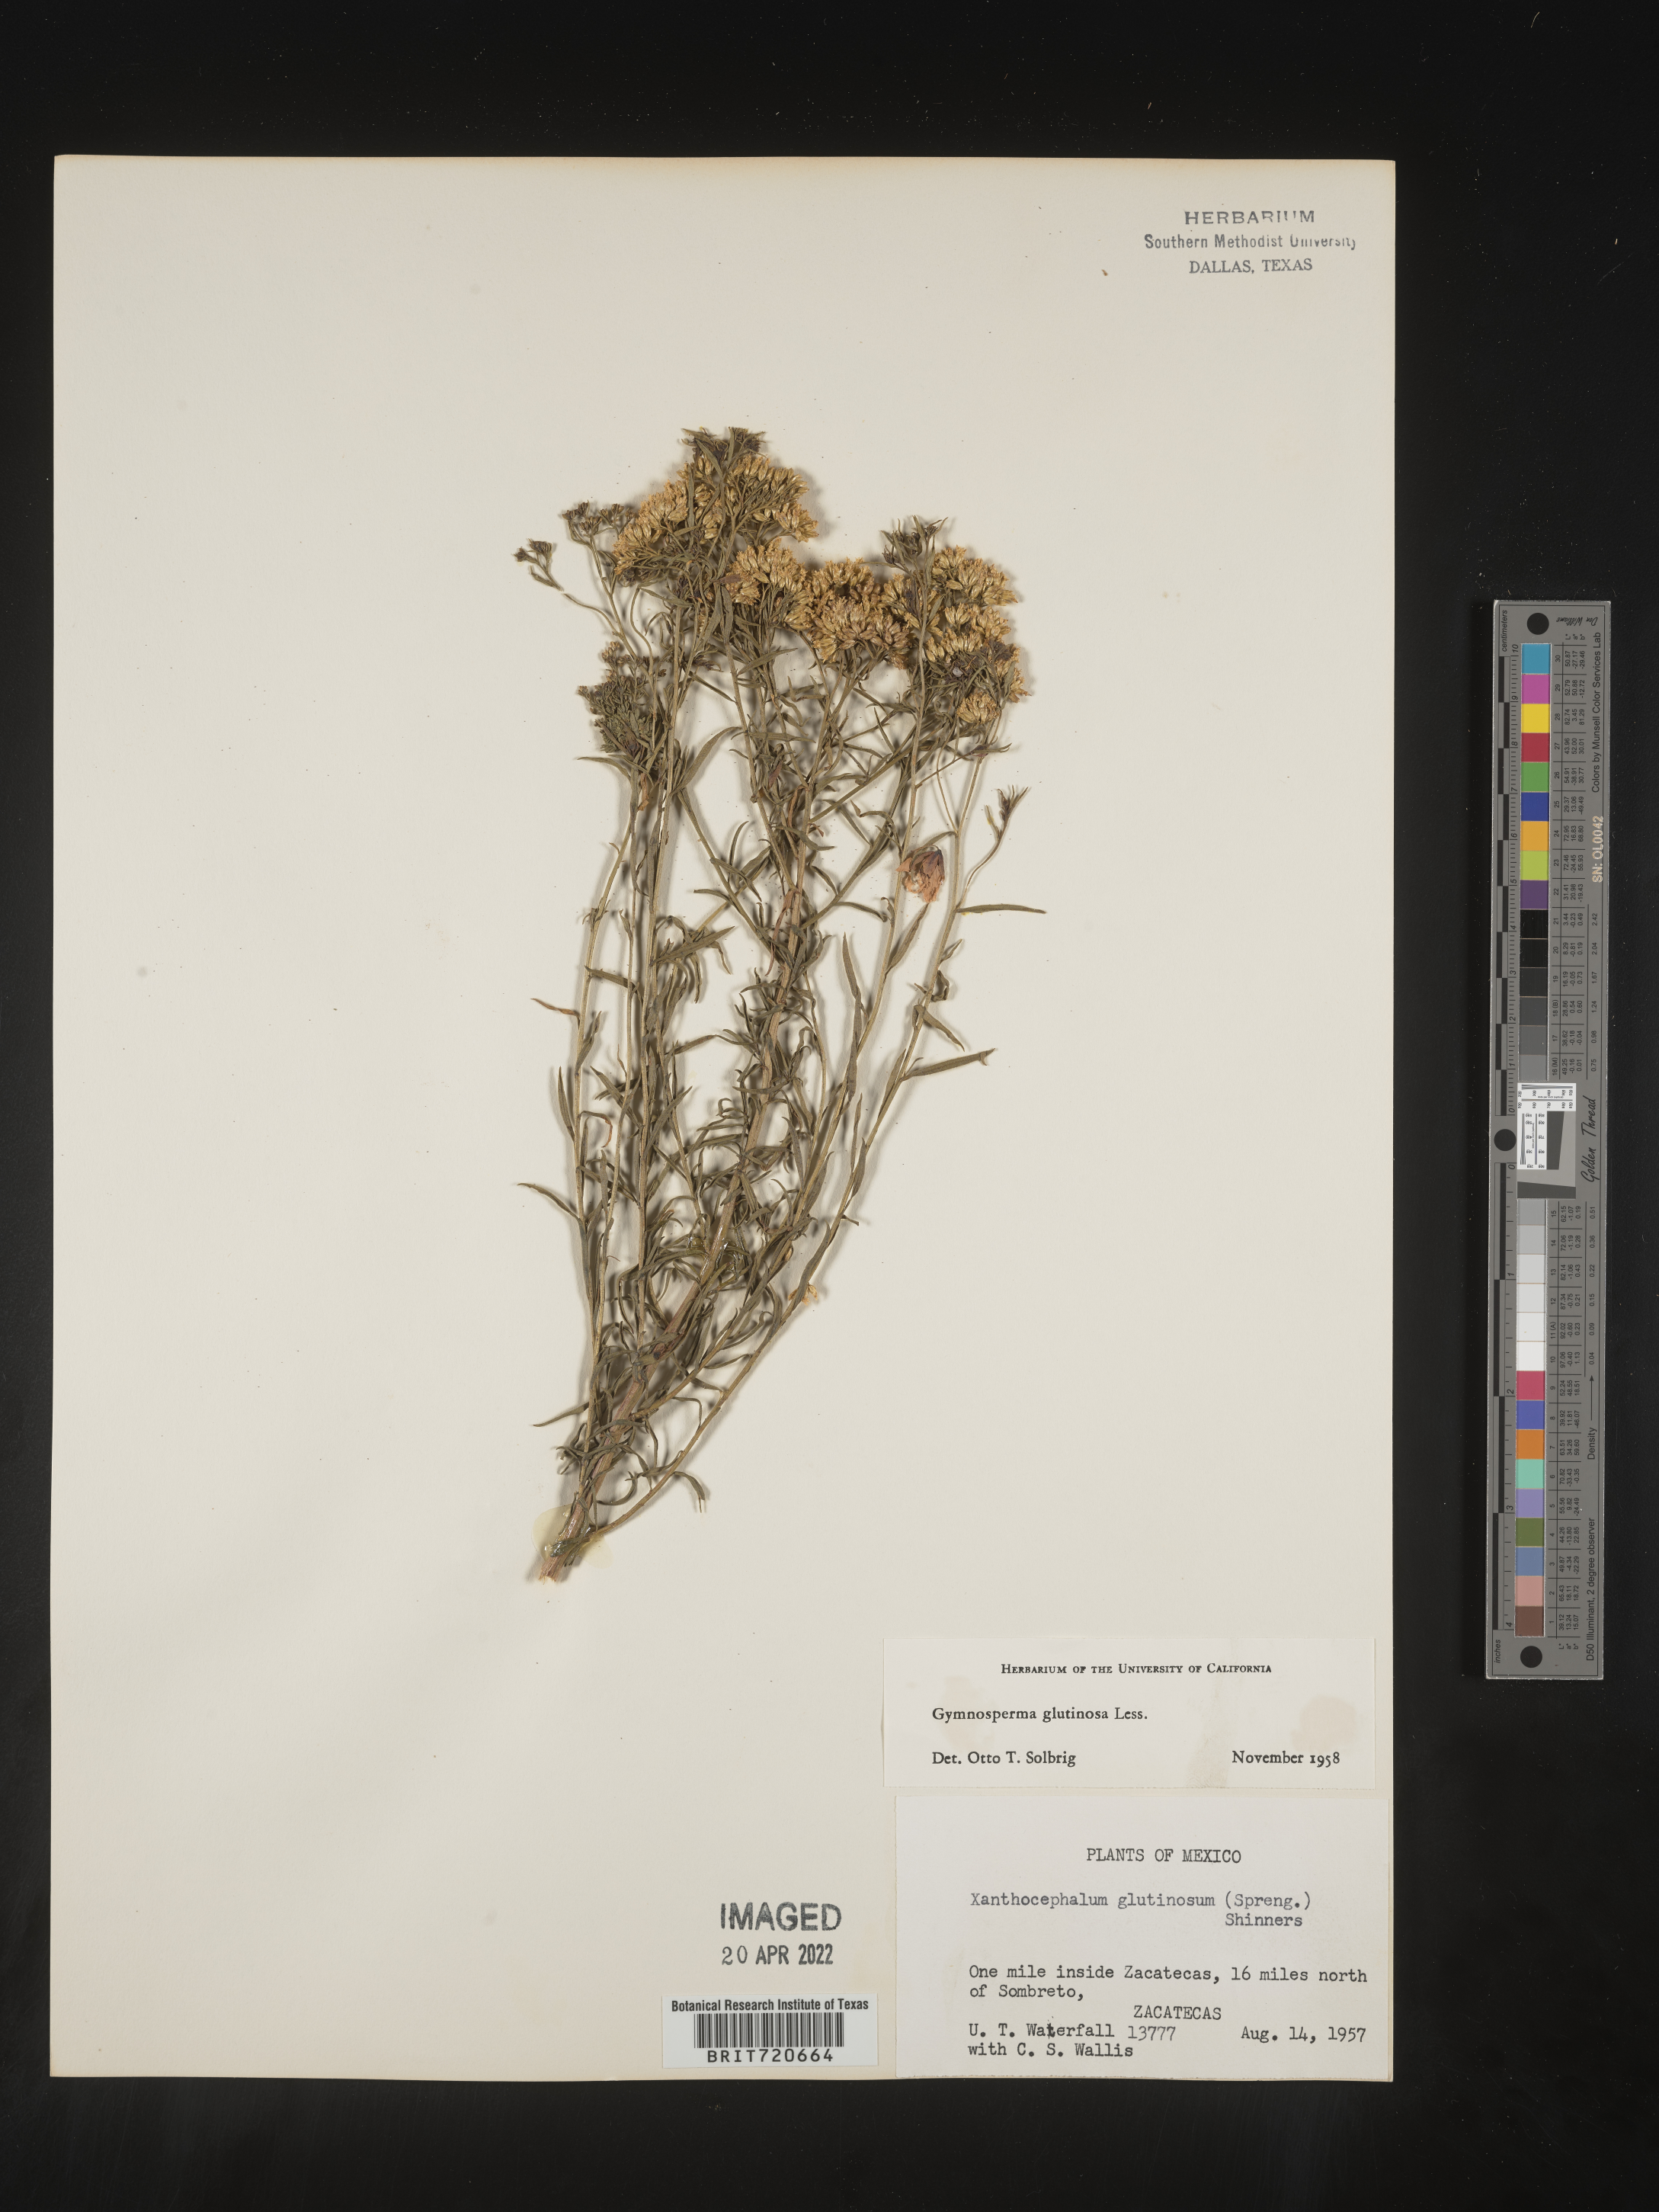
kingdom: Plantae
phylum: Tracheophyta
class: Magnoliopsida
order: Asterales
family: Asteraceae
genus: Gymnosperma
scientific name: Gymnosperma glutinosum
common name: Gumhead
